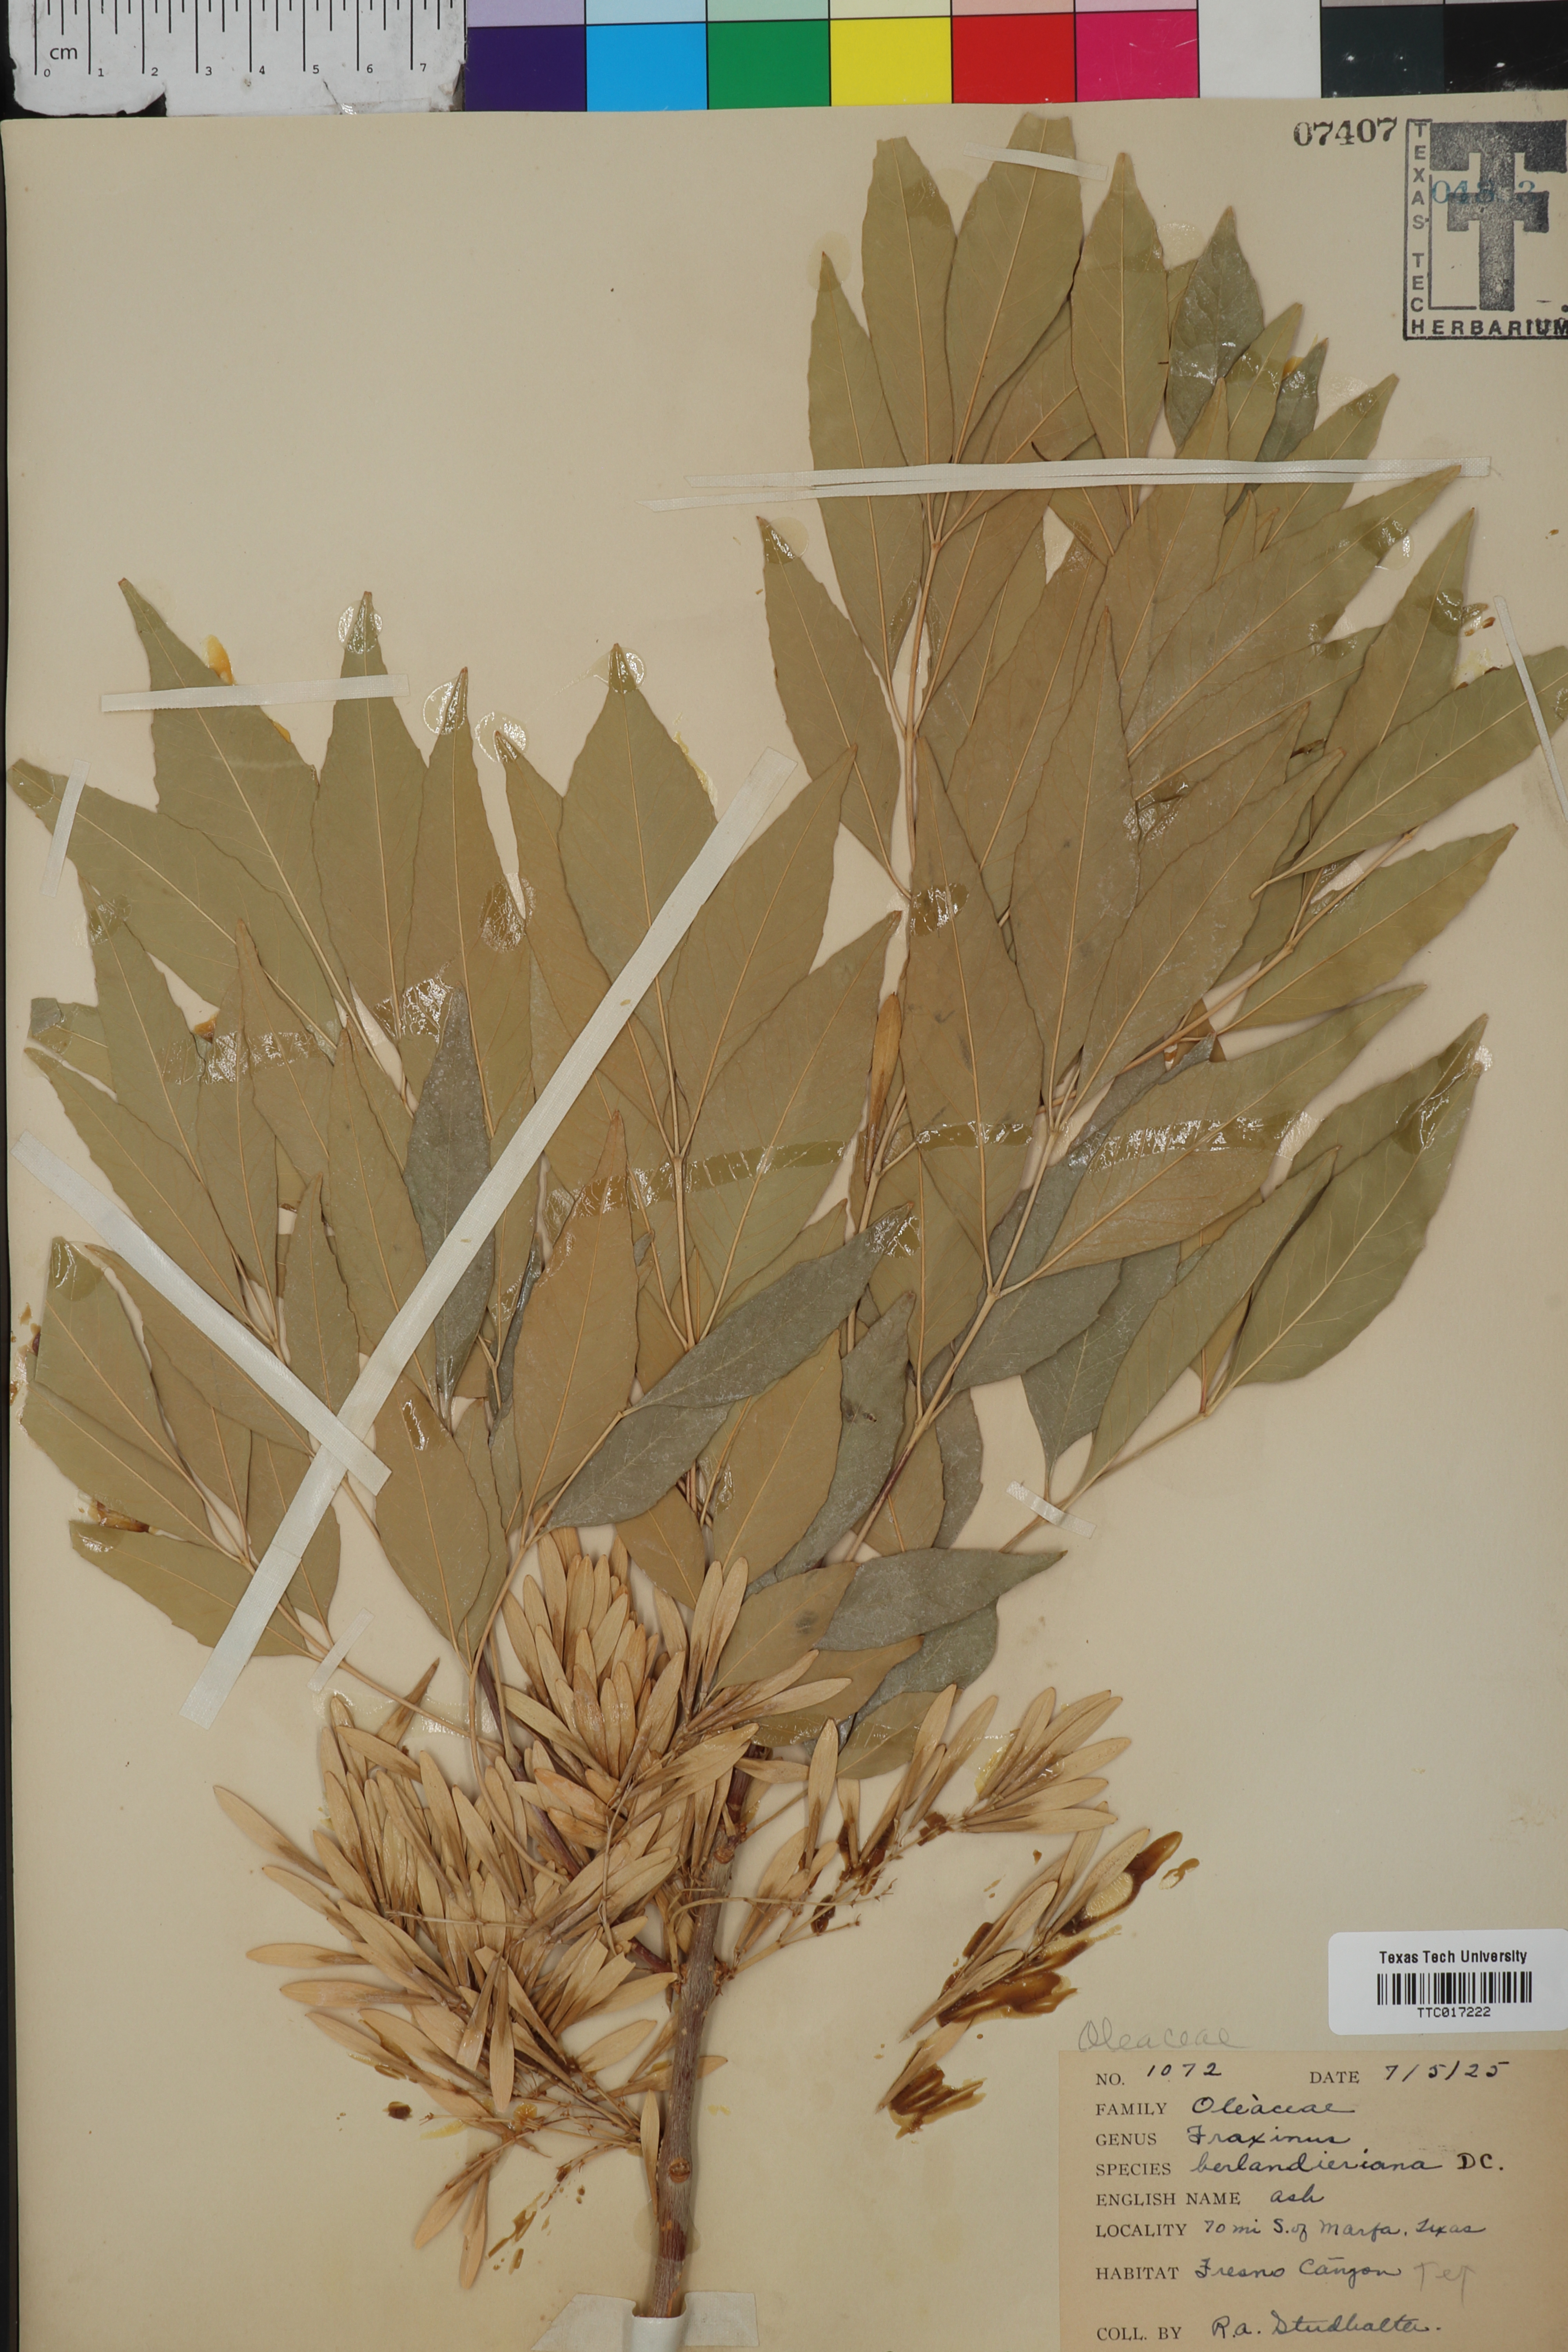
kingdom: Plantae
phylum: Tracheophyta
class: Magnoliopsida
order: Lamiales
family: Oleaceae
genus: Fraxinus
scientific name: Fraxinus berlandieriana
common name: Berlandier ash
